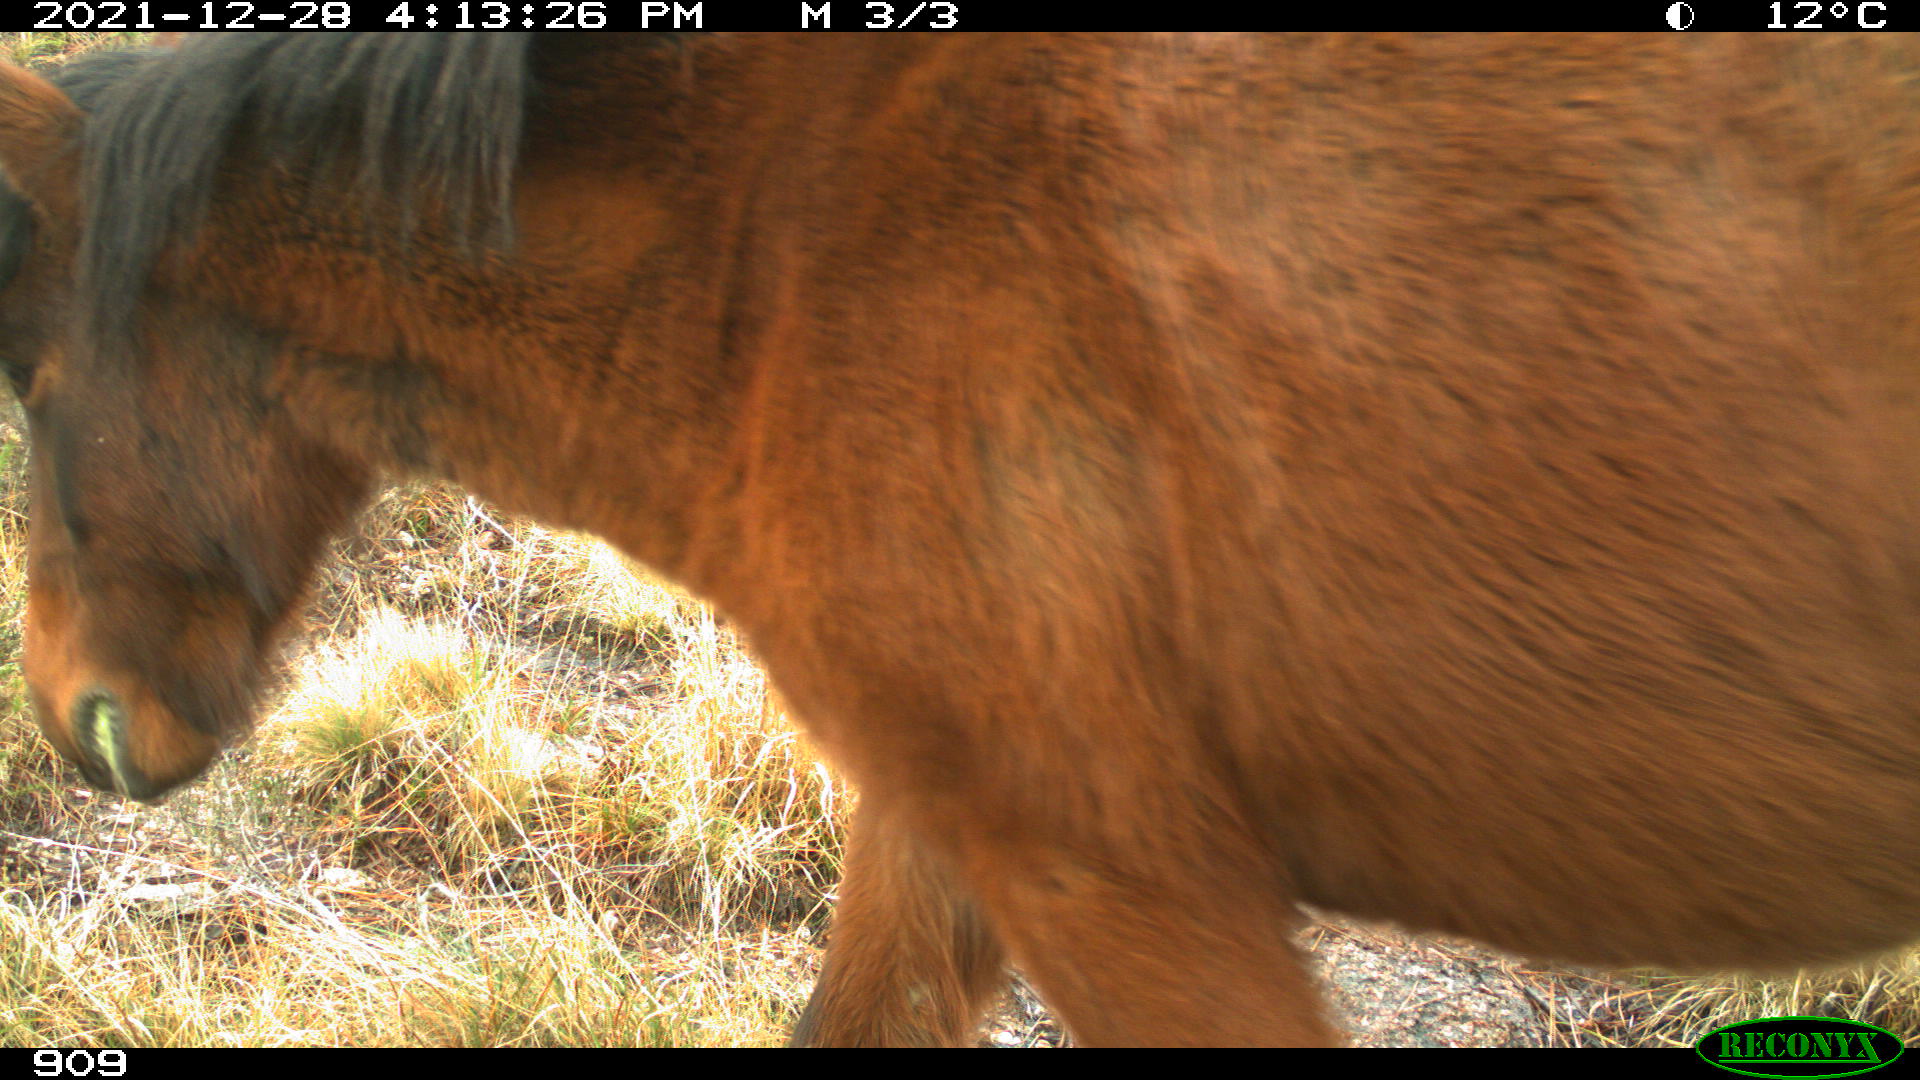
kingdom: Animalia
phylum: Chordata
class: Mammalia
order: Perissodactyla
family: Equidae
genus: Equus
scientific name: Equus caballus
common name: Horse
